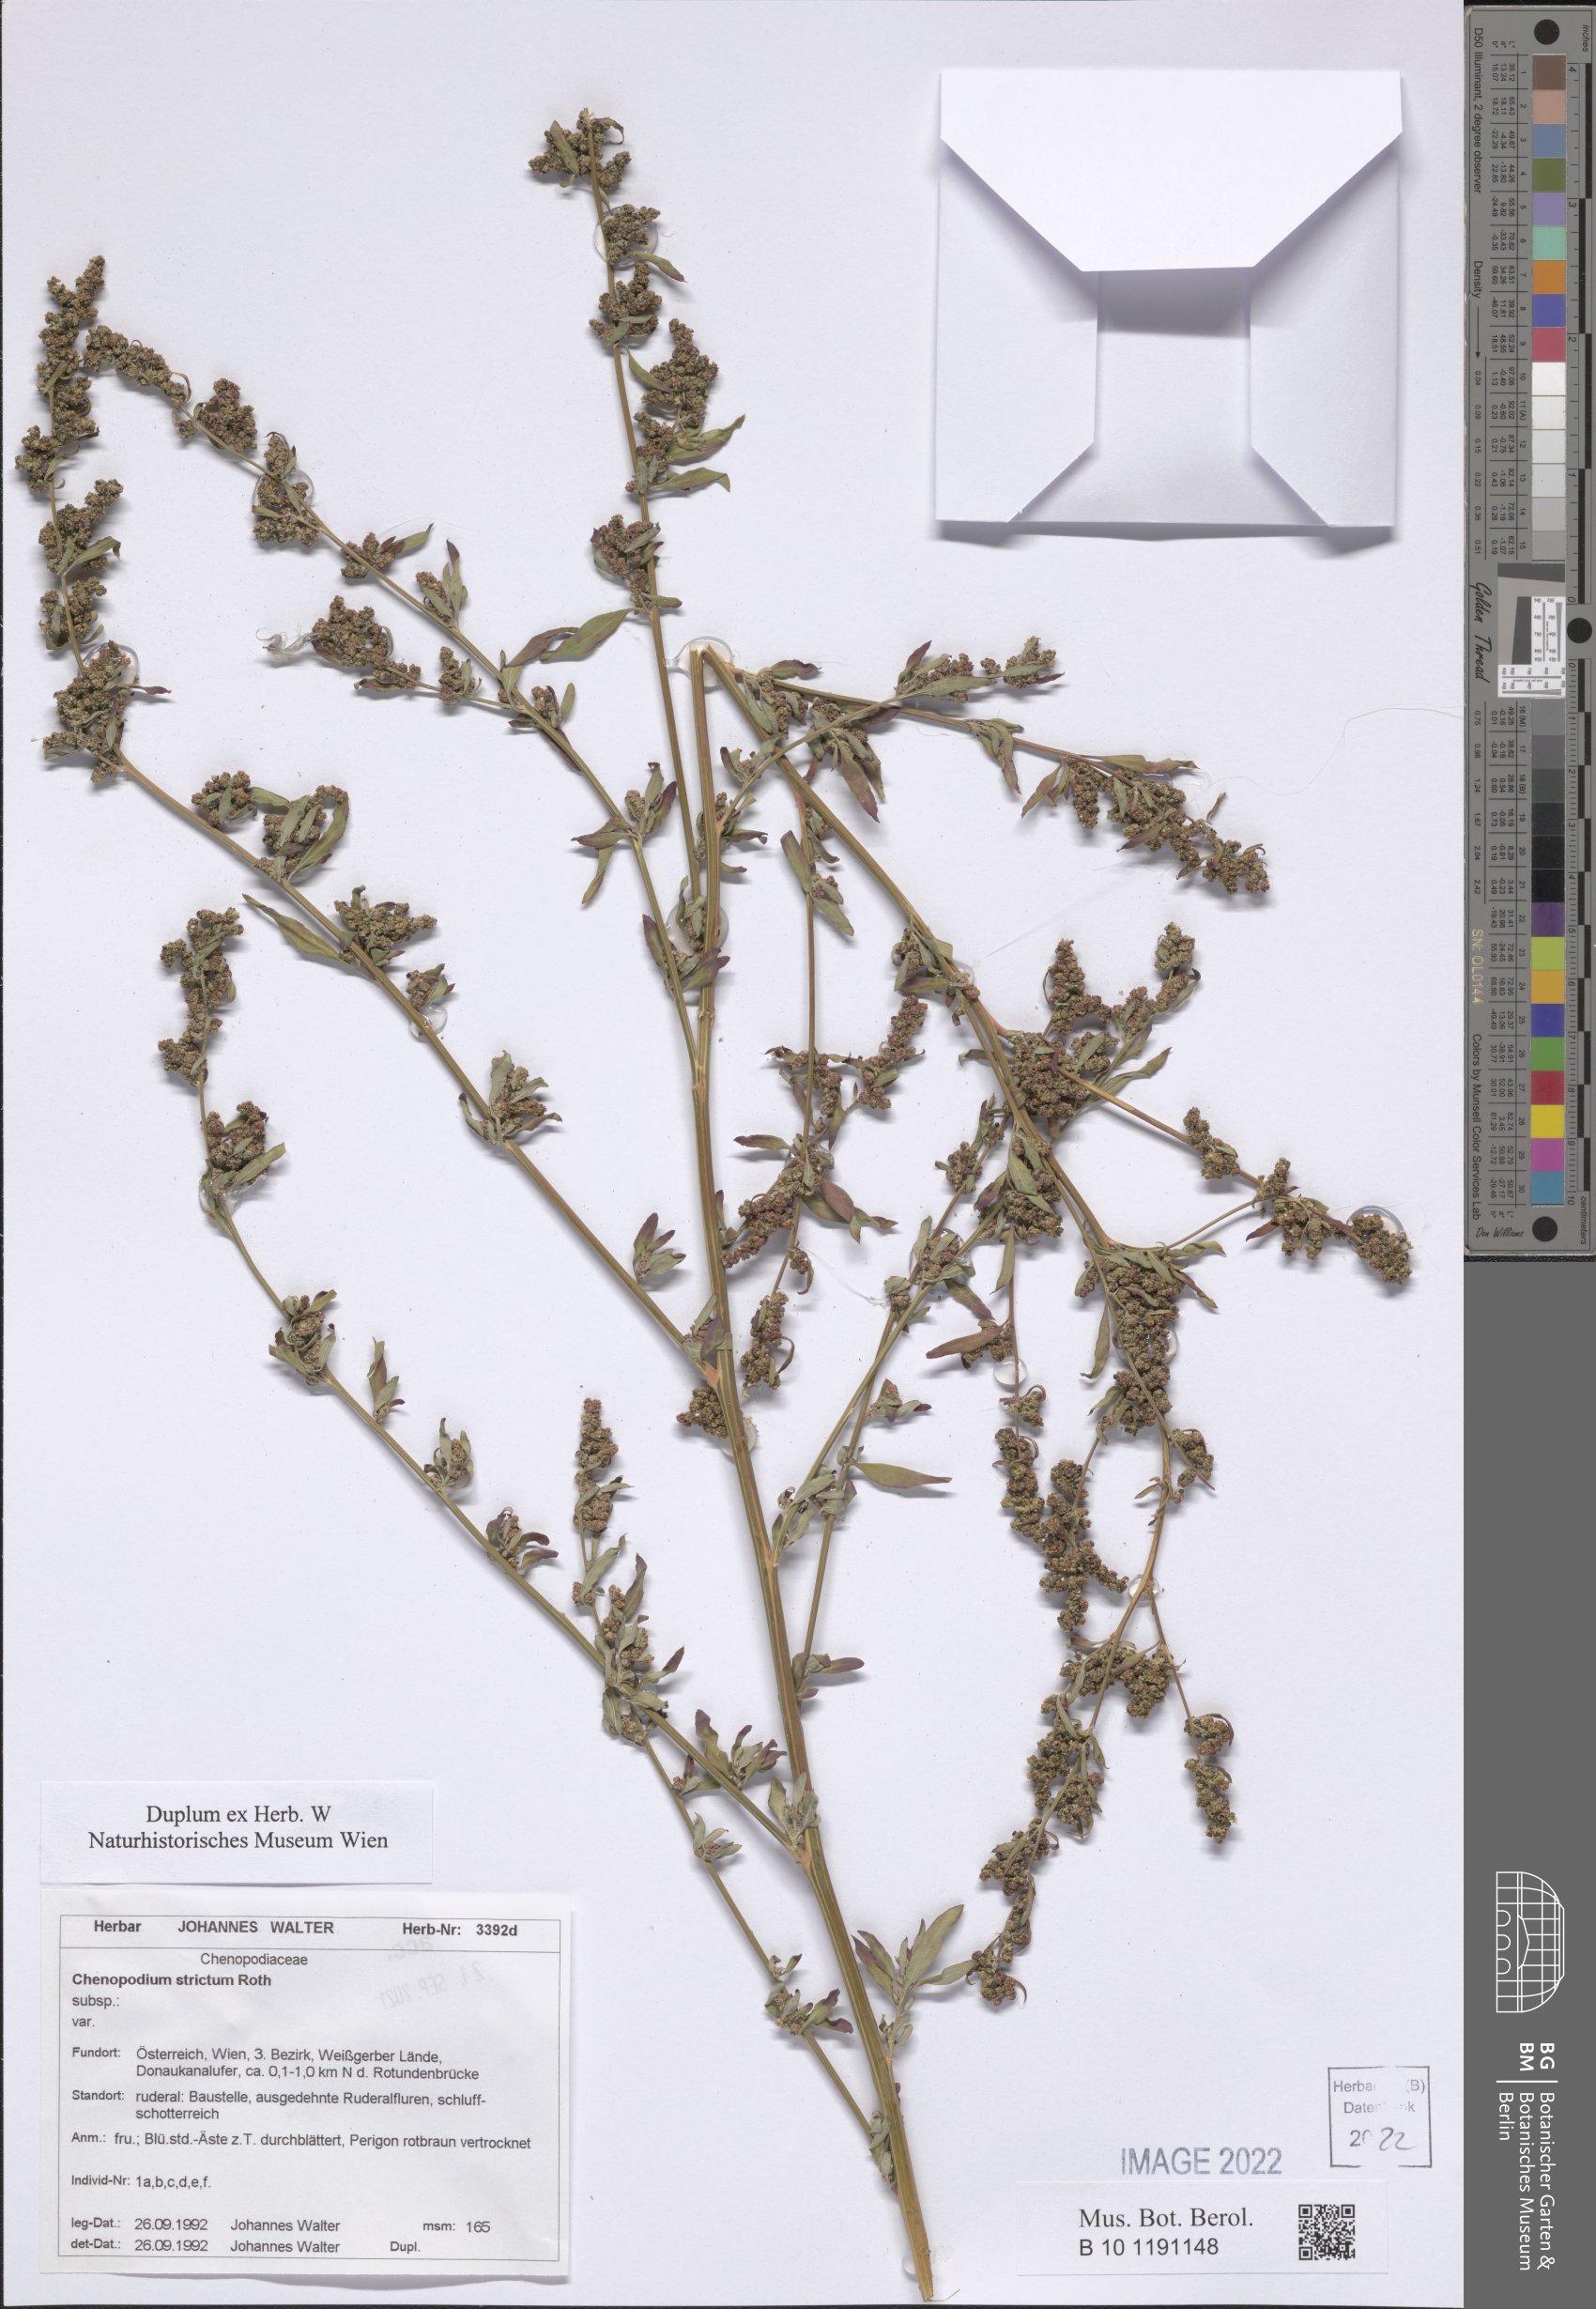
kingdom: Plantae
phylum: Tracheophyta
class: Magnoliopsida
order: Caryophyllales
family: Amaranthaceae
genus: Chenopodium
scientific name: Chenopodium album
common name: Fat-hen
